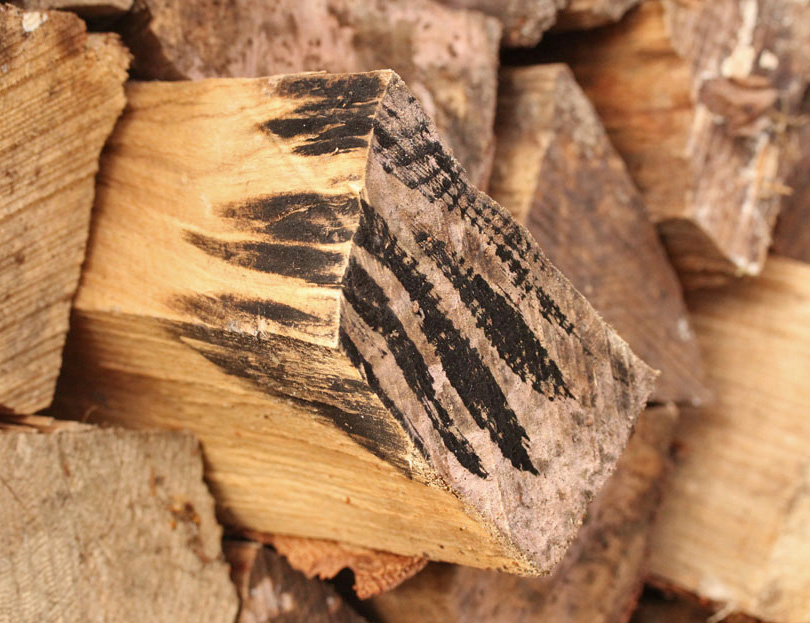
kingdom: Fungi
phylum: Ascomycota
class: Leotiomycetes
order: Helotiales
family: Helotiaceae
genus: Bispora
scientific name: Bispora pallescens
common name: måtte-snitskive
